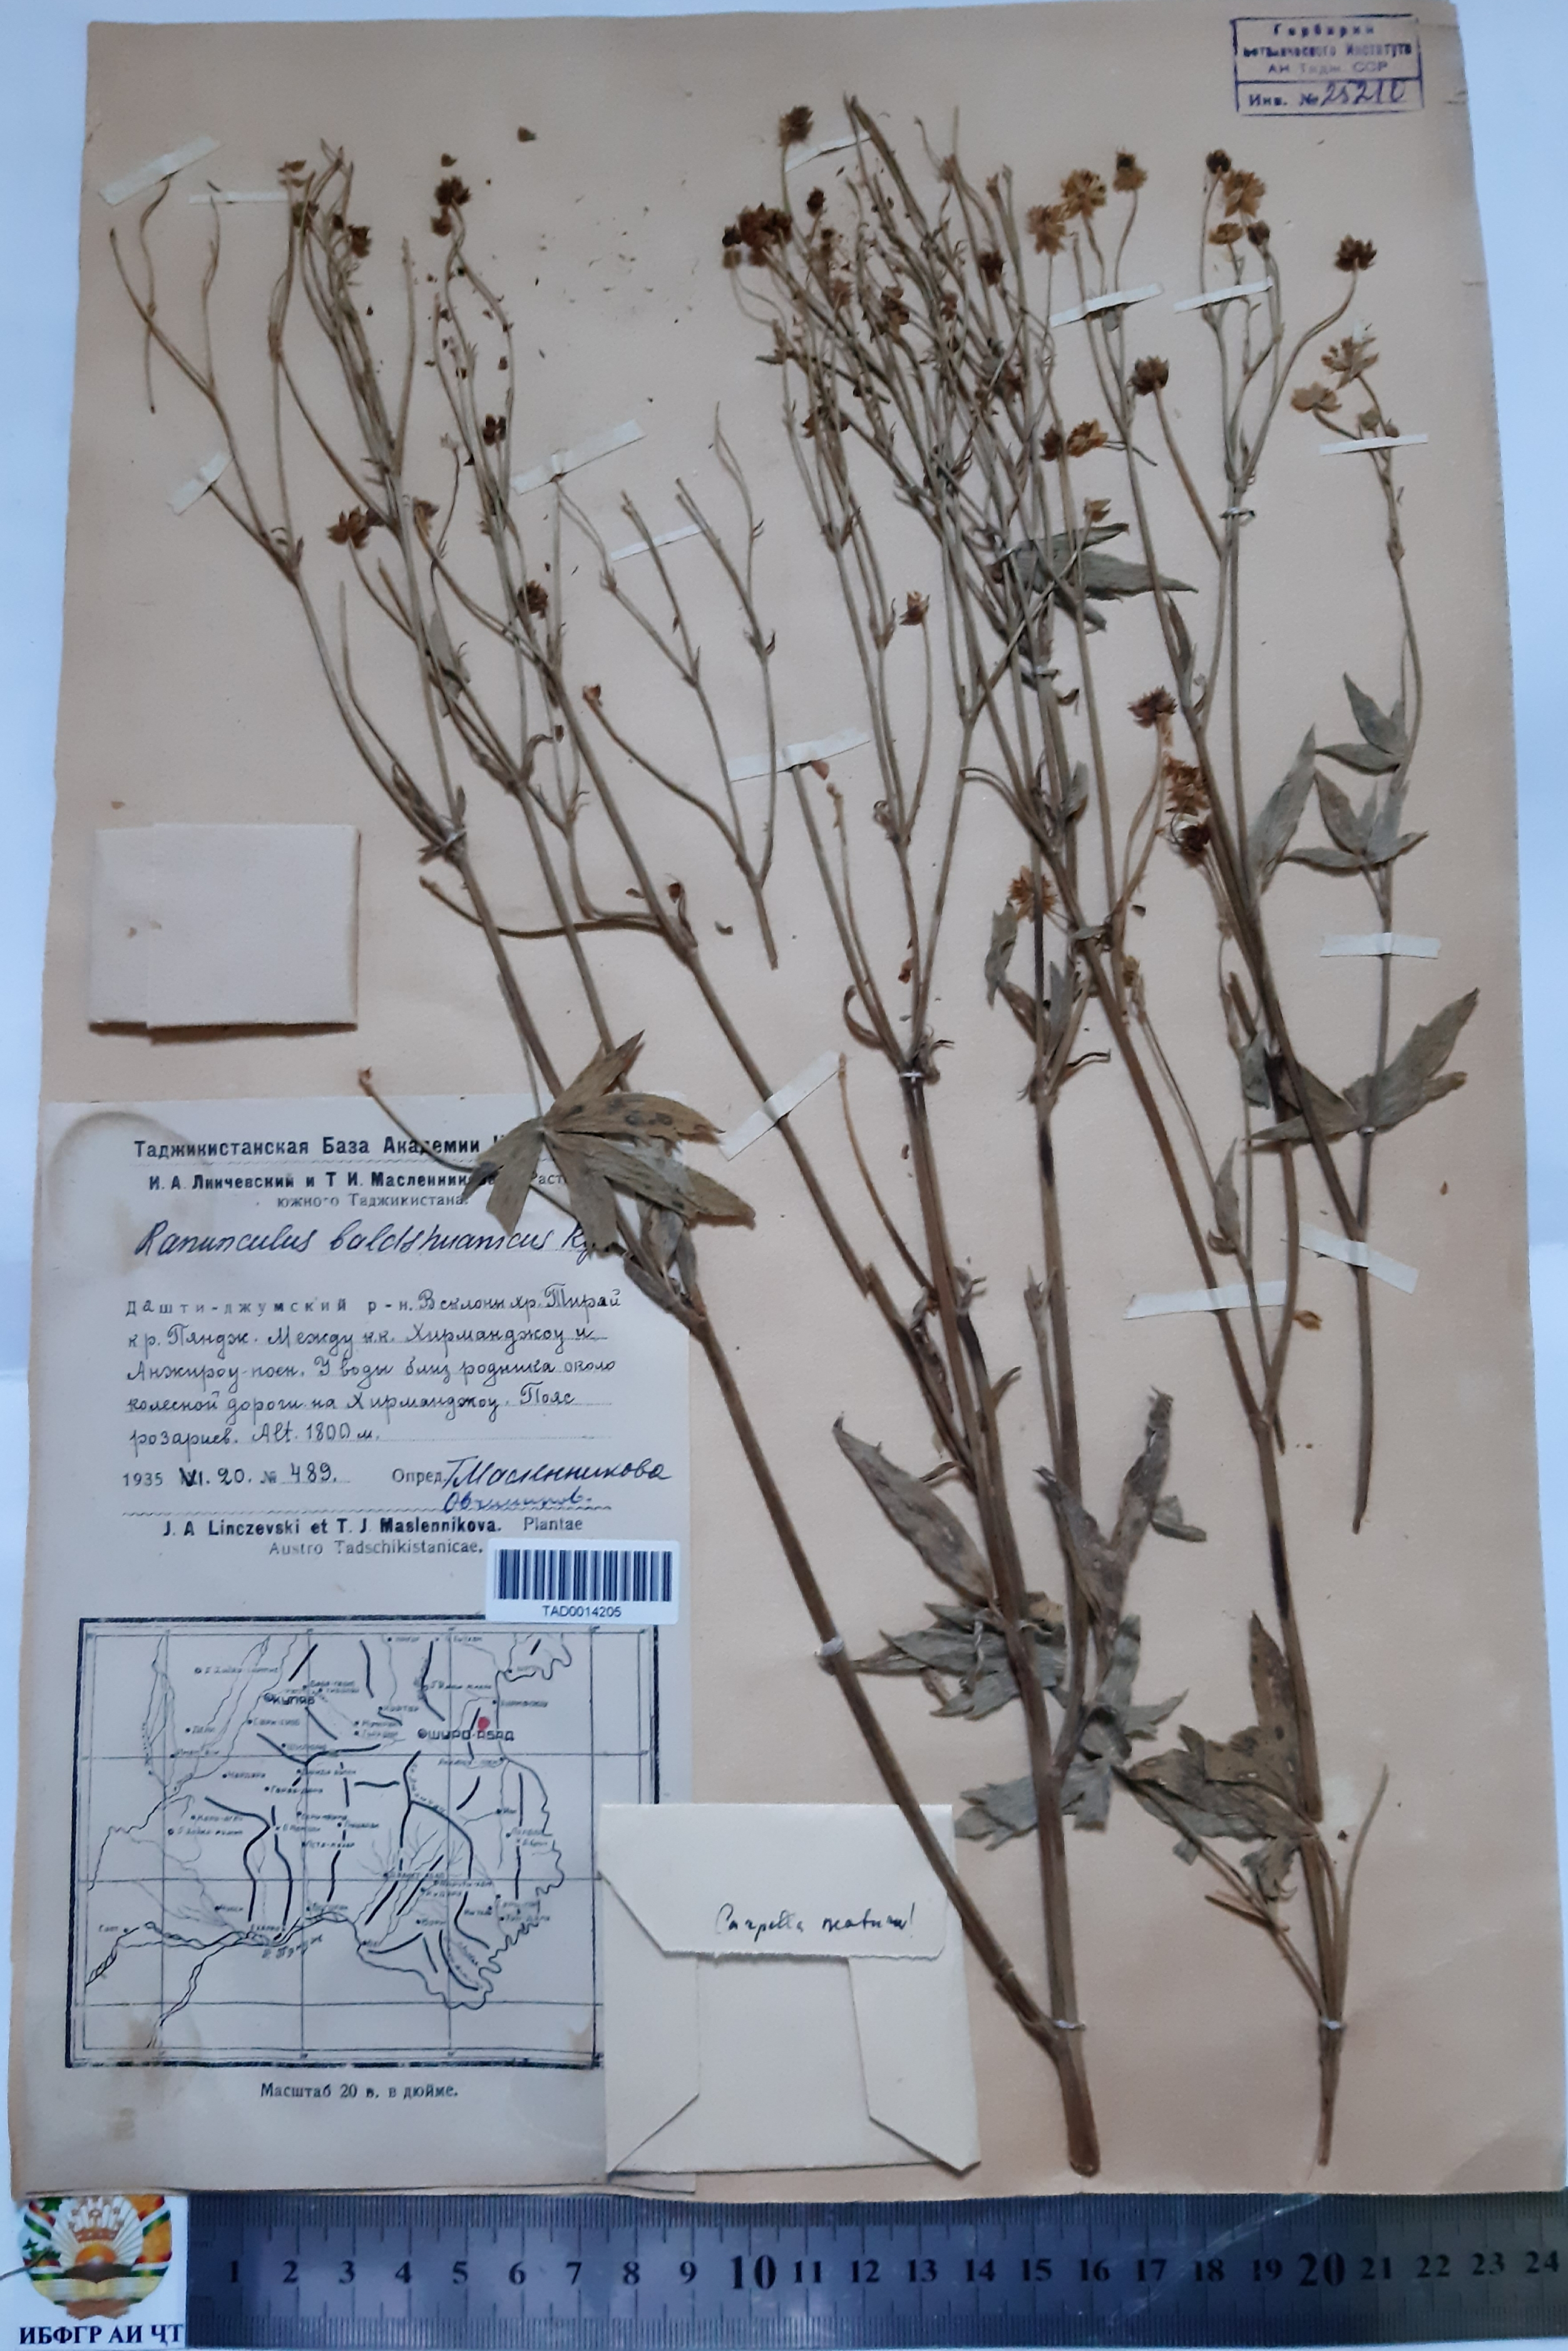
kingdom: Plantae
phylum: Tracheophyta
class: Magnoliopsida
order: Ranunculales
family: Ranunculaceae
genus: Ranunculus
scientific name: Ranunculus baldshuanicus
